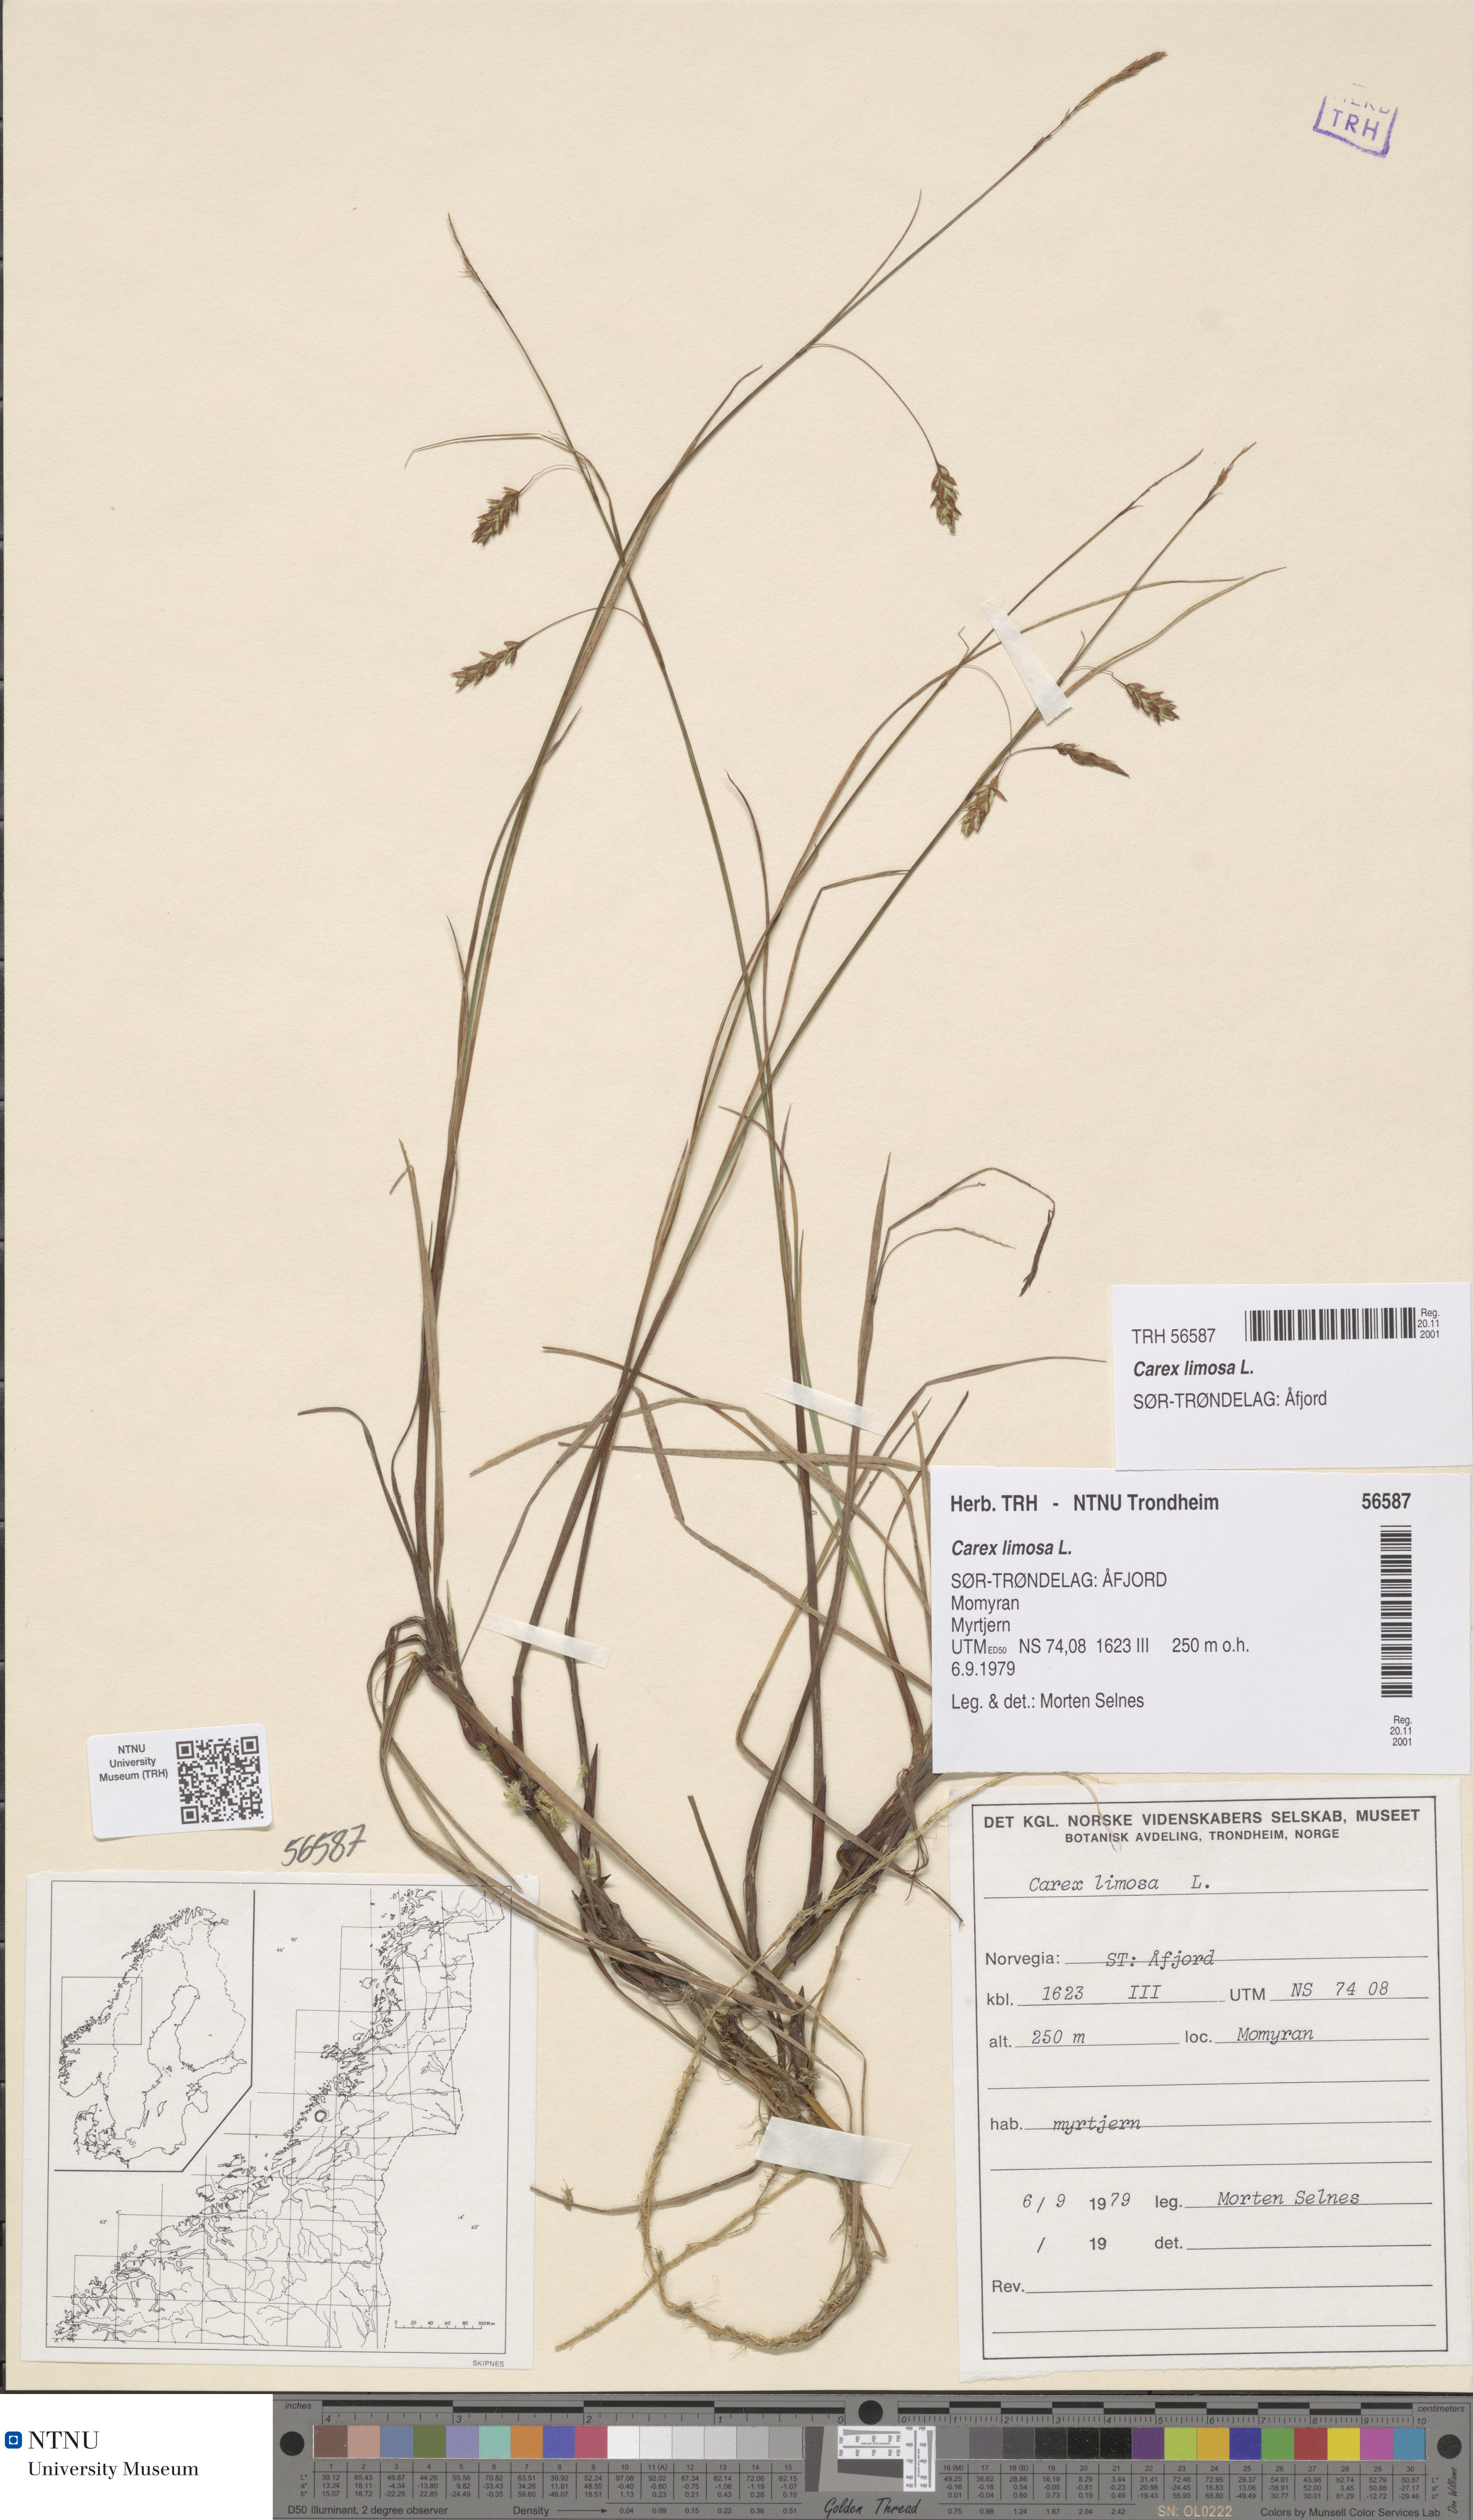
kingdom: Plantae
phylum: Tracheophyta
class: Liliopsida
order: Poales
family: Cyperaceae
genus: Carex
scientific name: Carex limosa
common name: Bog sedge
